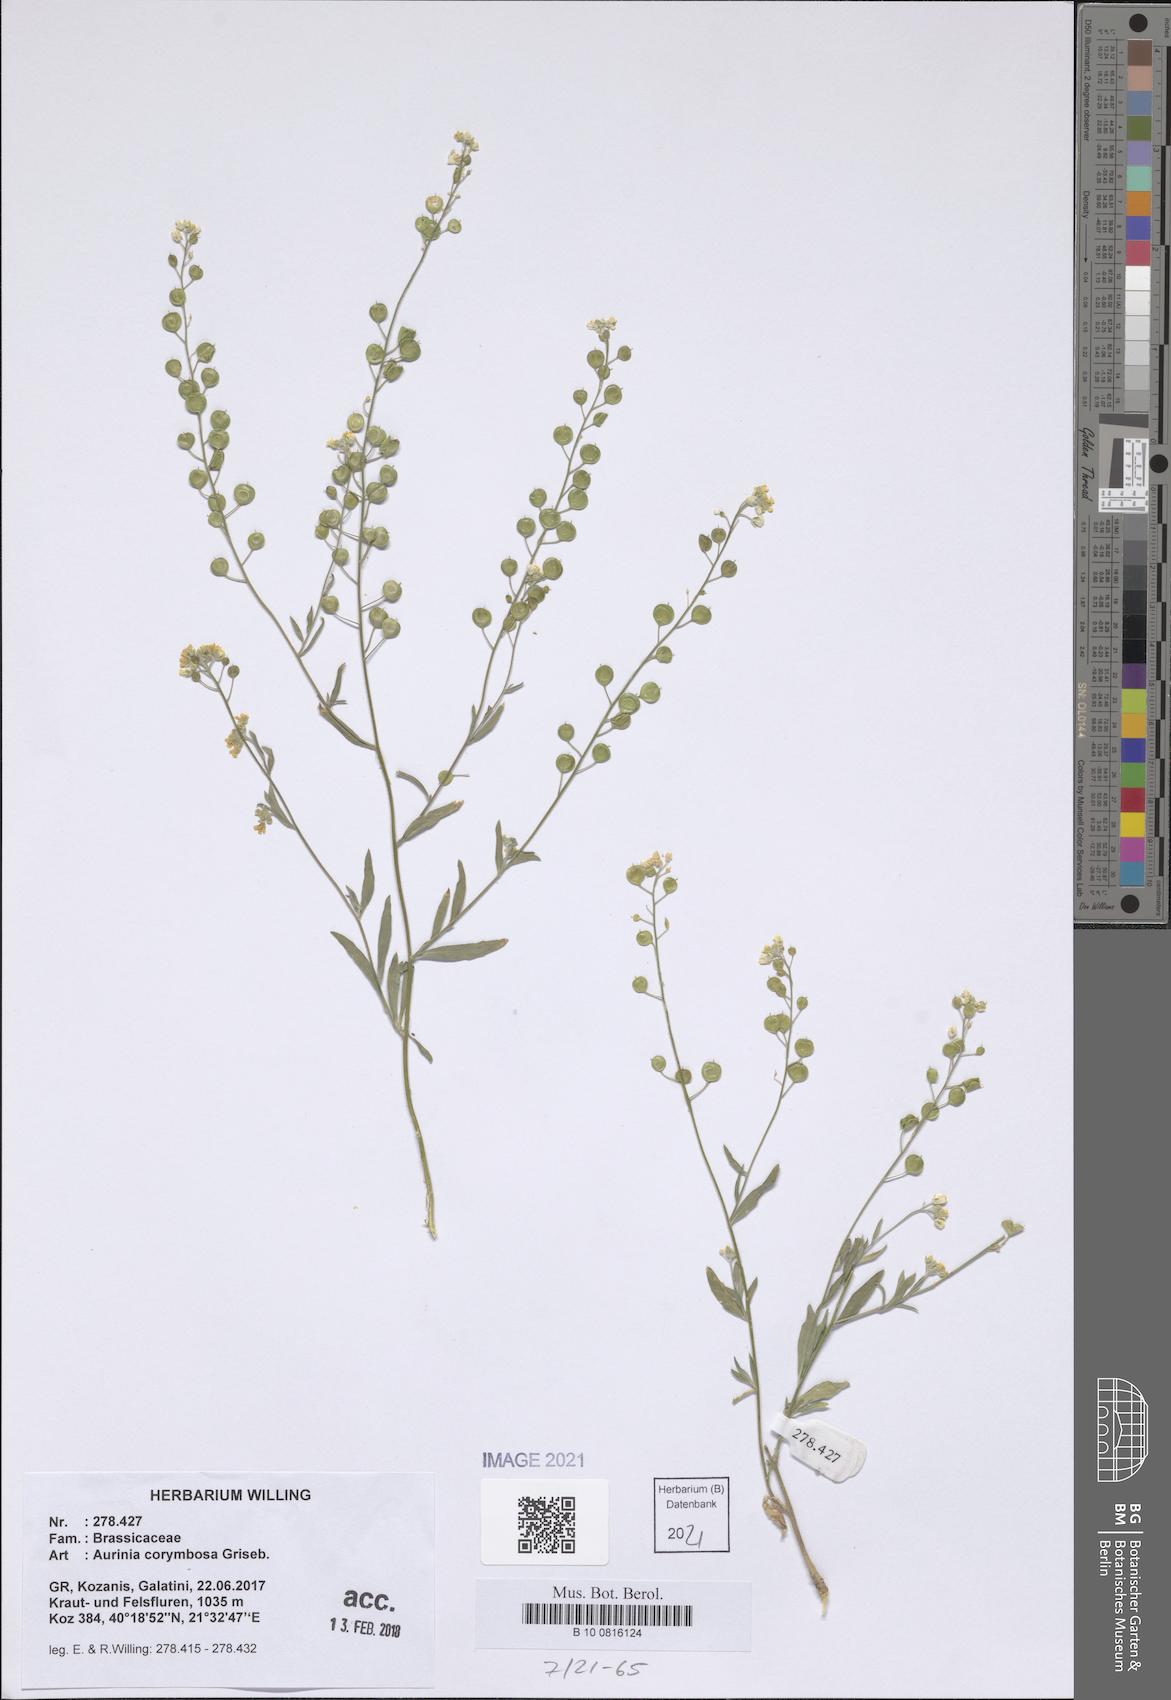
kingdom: Plantae
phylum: Tracheophyta
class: Magnoliopsida
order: Brassicales
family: Brassicaceae
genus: Aurinia
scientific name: Aurinia corymbosa
